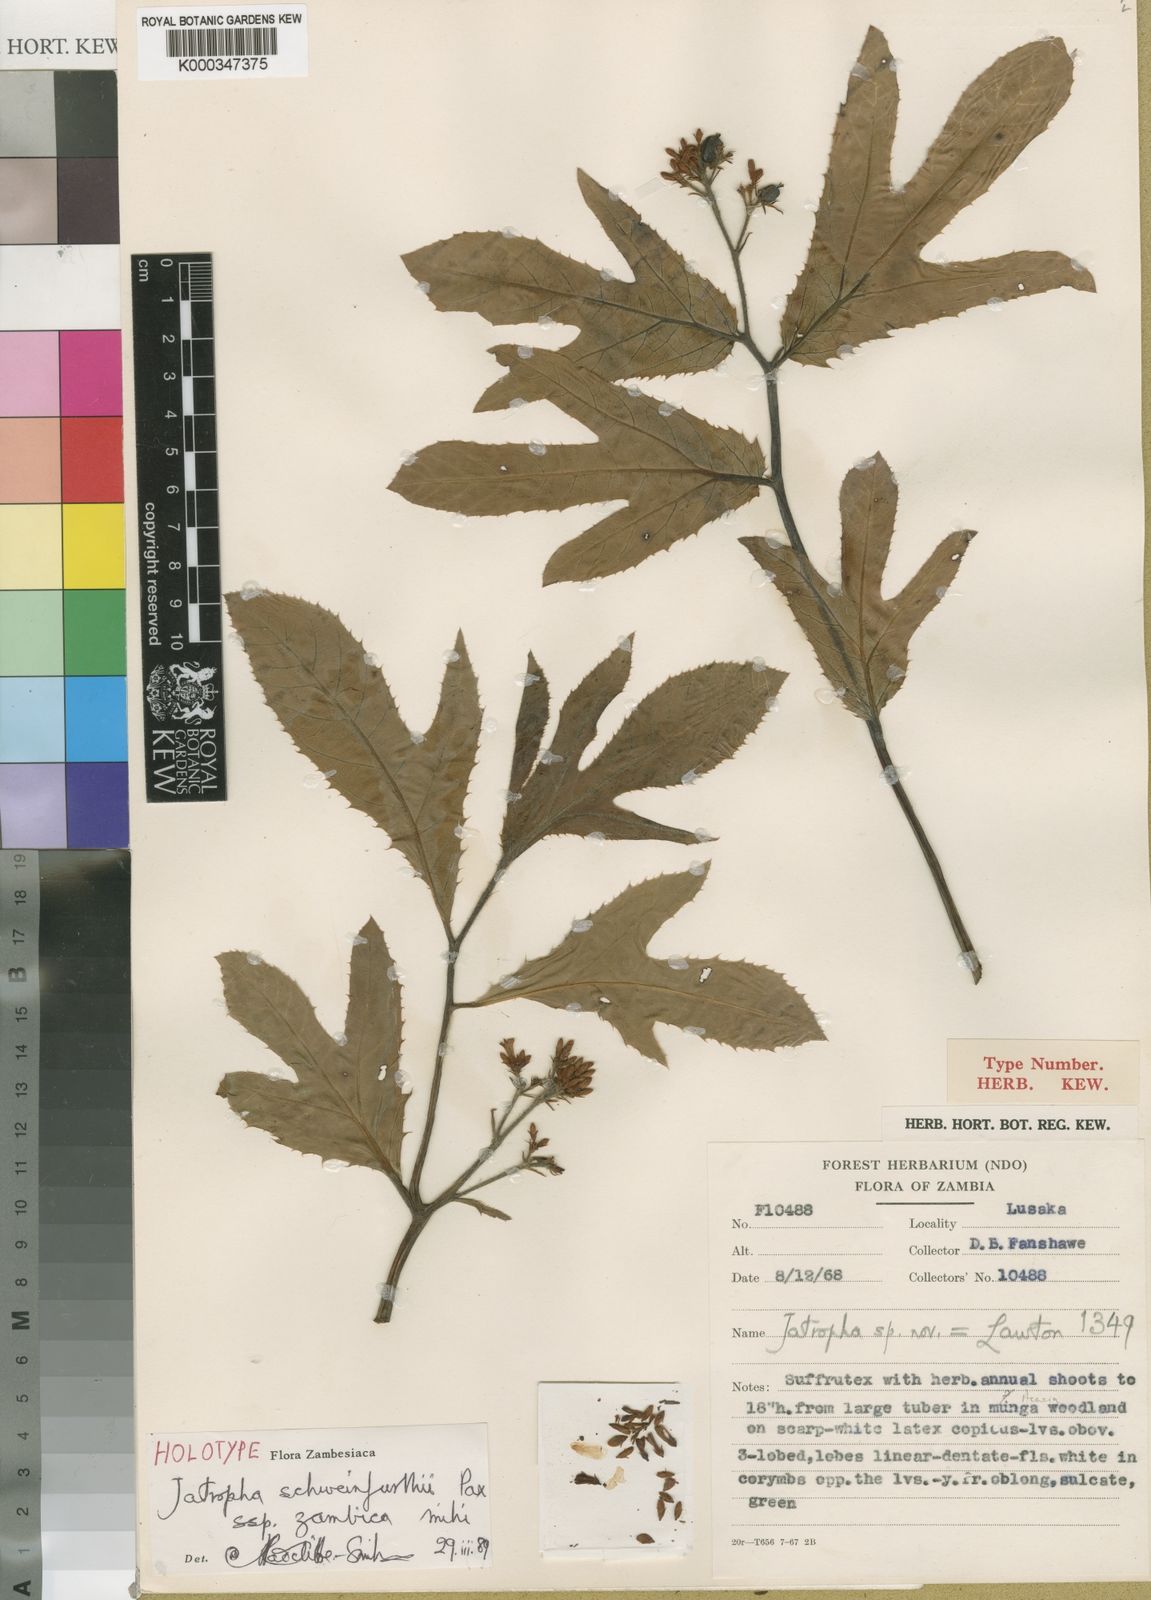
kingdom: Plantae
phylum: Tracheophyta
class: Magnoliopsida
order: Malpighiales
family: Euphorbiaceae
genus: Jatropha
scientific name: Jatropha schweinfurthii
